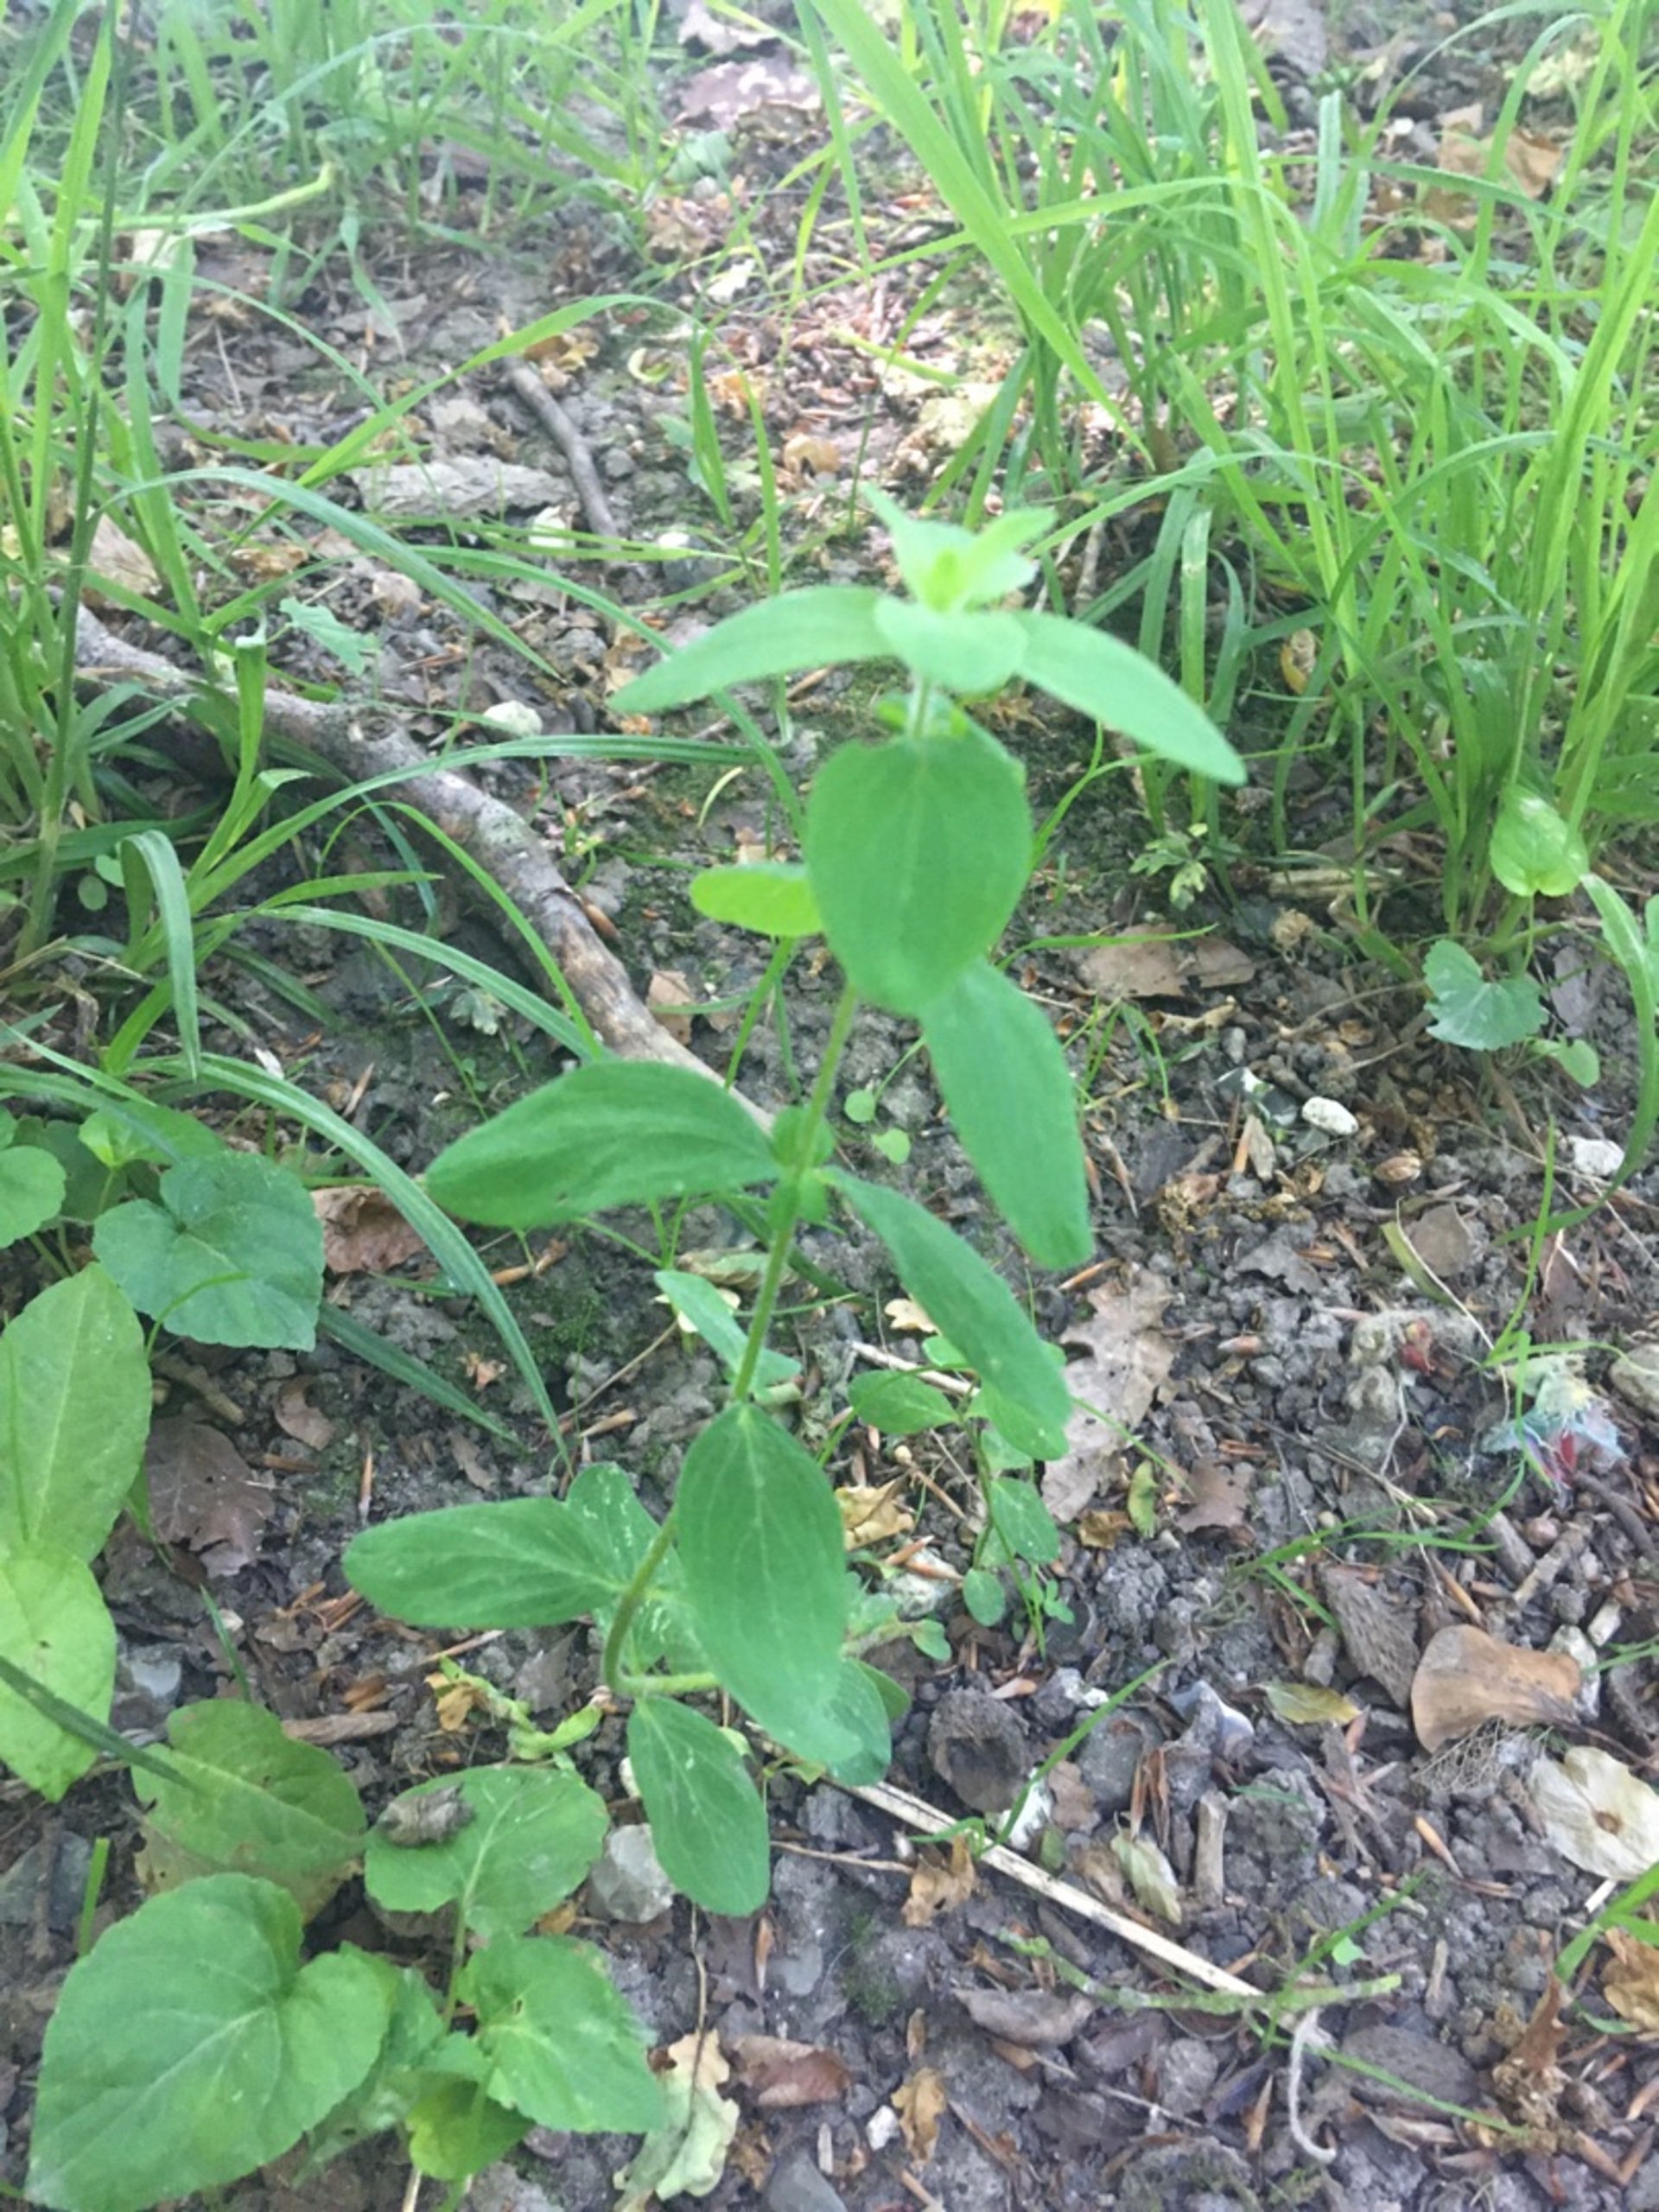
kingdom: Plantae
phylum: Tracheophyta
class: Magnoliopsida
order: Malpighiales
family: Hypericaceae
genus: Hypericum
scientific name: Hypericum hirsutum
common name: Lådden perikon
